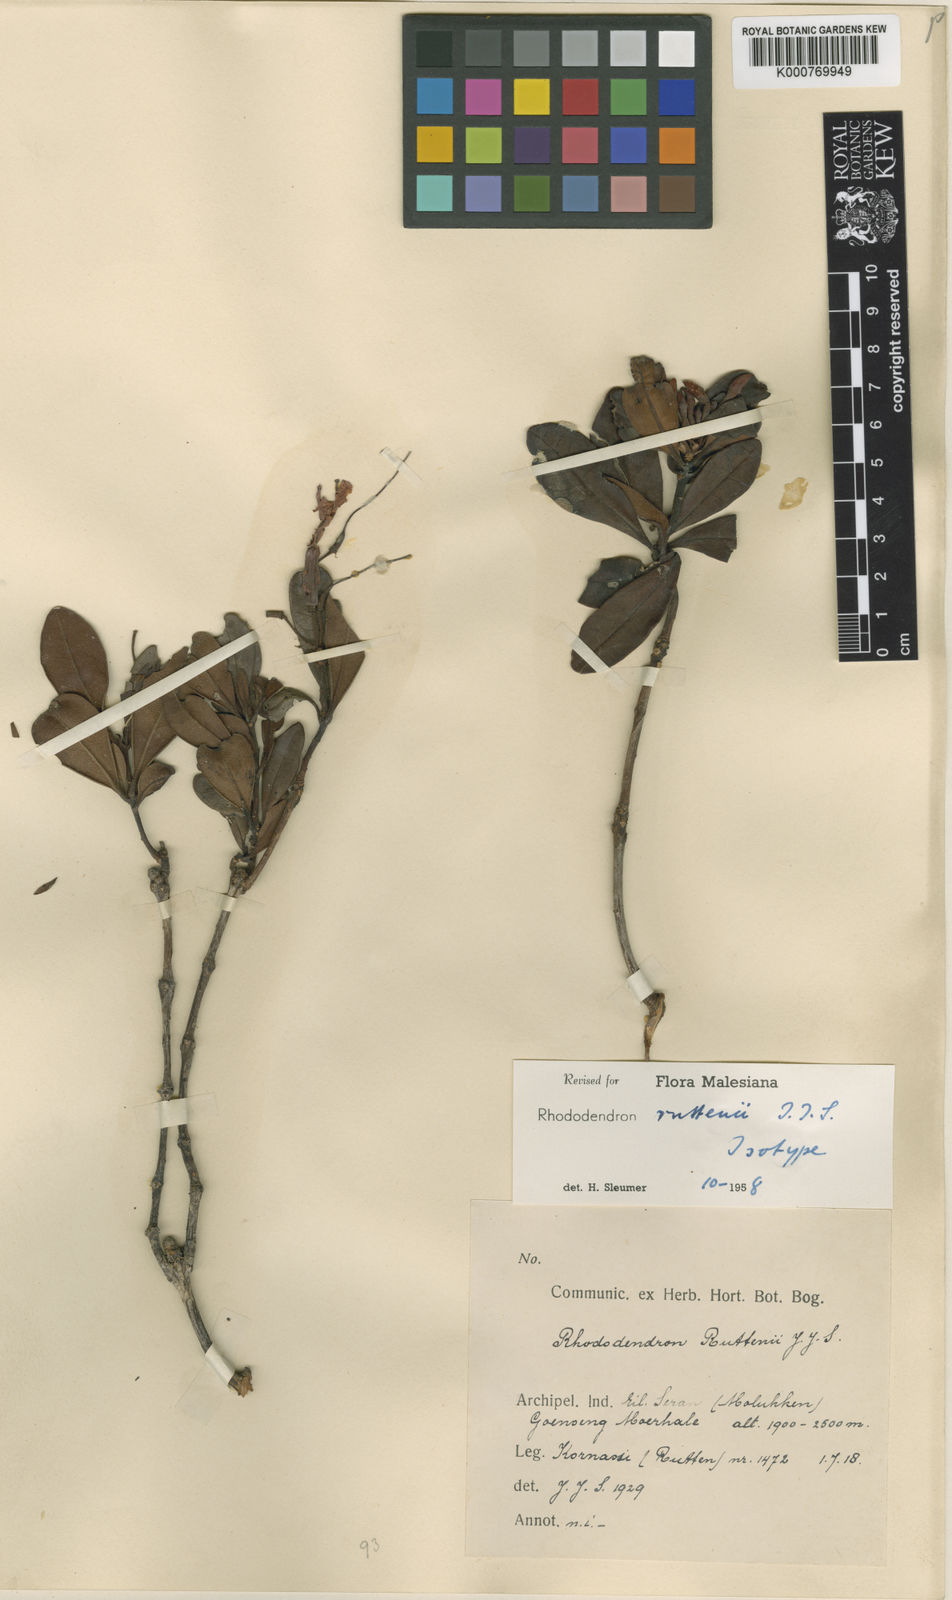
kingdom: Plantae
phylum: Tracheophyta
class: Magnoliopsida
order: Ericales
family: Ericaceae
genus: Rhododendron
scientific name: Rhododendron ruttenii
